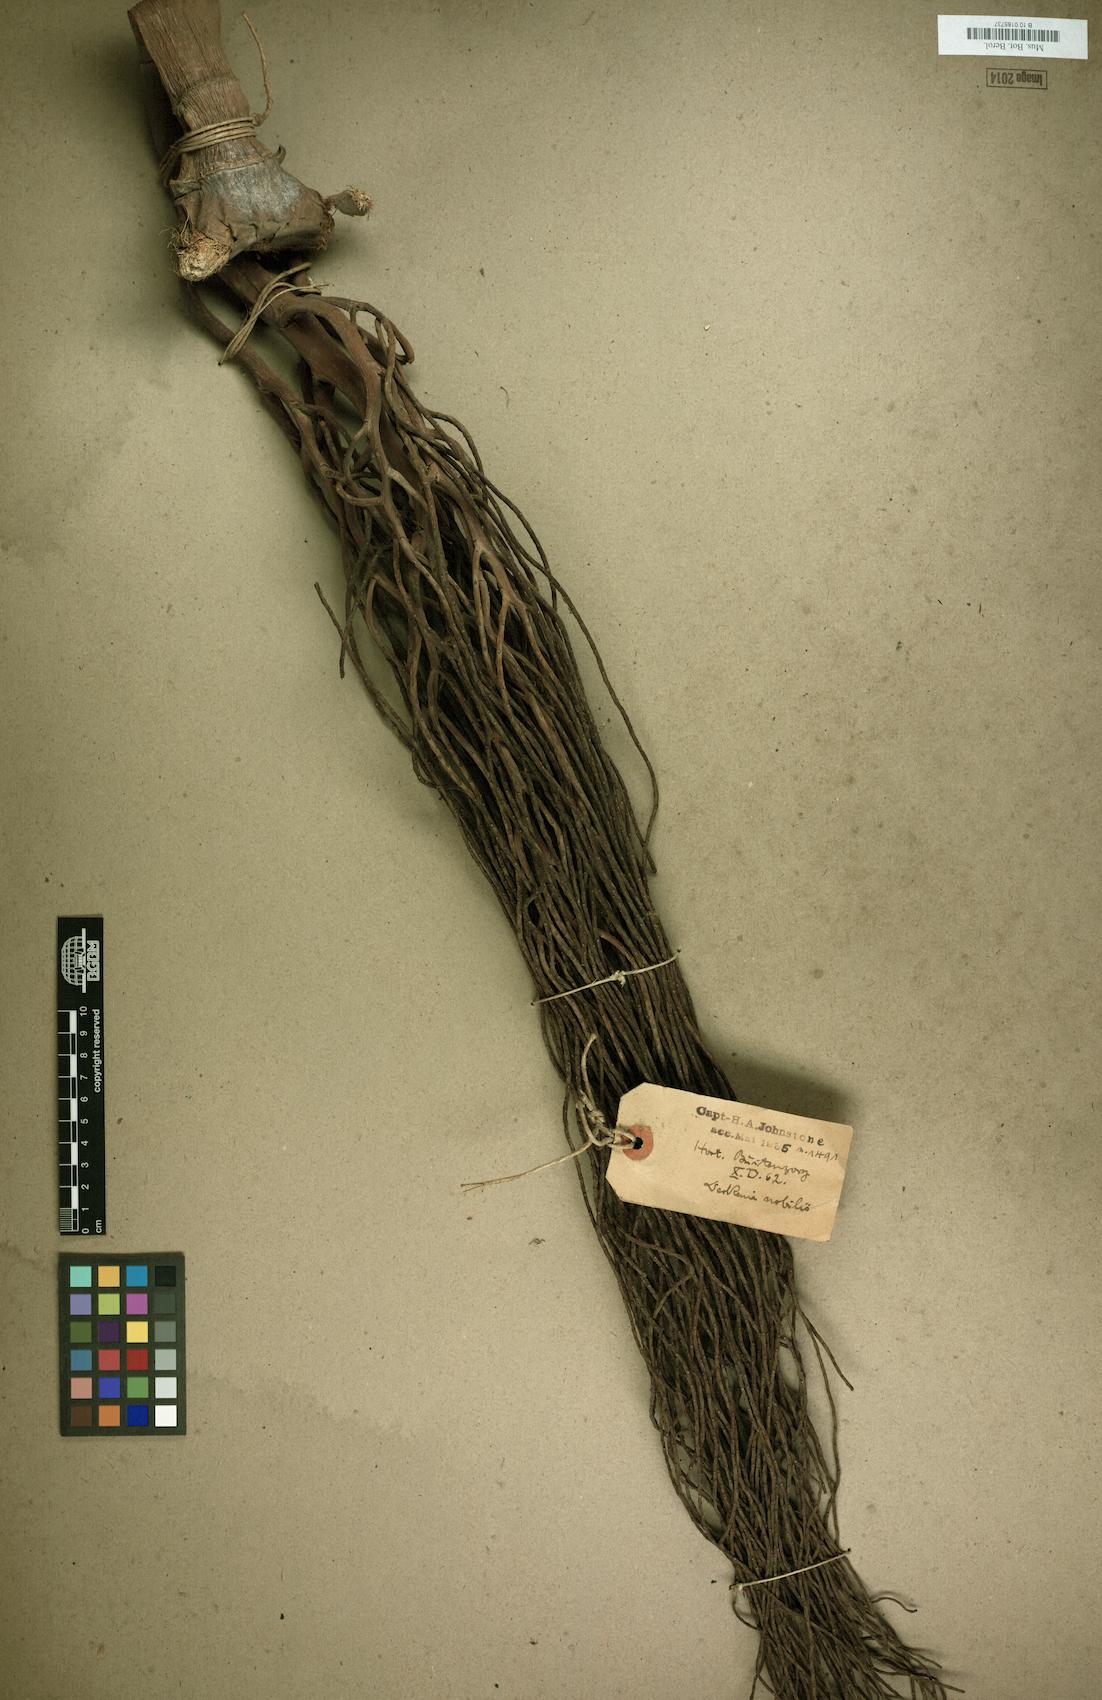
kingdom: Plantae
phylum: Tracheophyta
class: Liliopsida
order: Arecales
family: Arecaceae
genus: Deckenia
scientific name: Deckenia nobilis
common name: Cabbage palm
